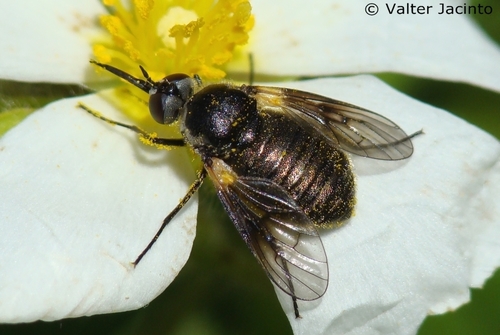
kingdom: Animalia
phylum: Arthropoda
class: Insecta
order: Diptera
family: Bombyliidae
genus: Usia
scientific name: Usia aenea
